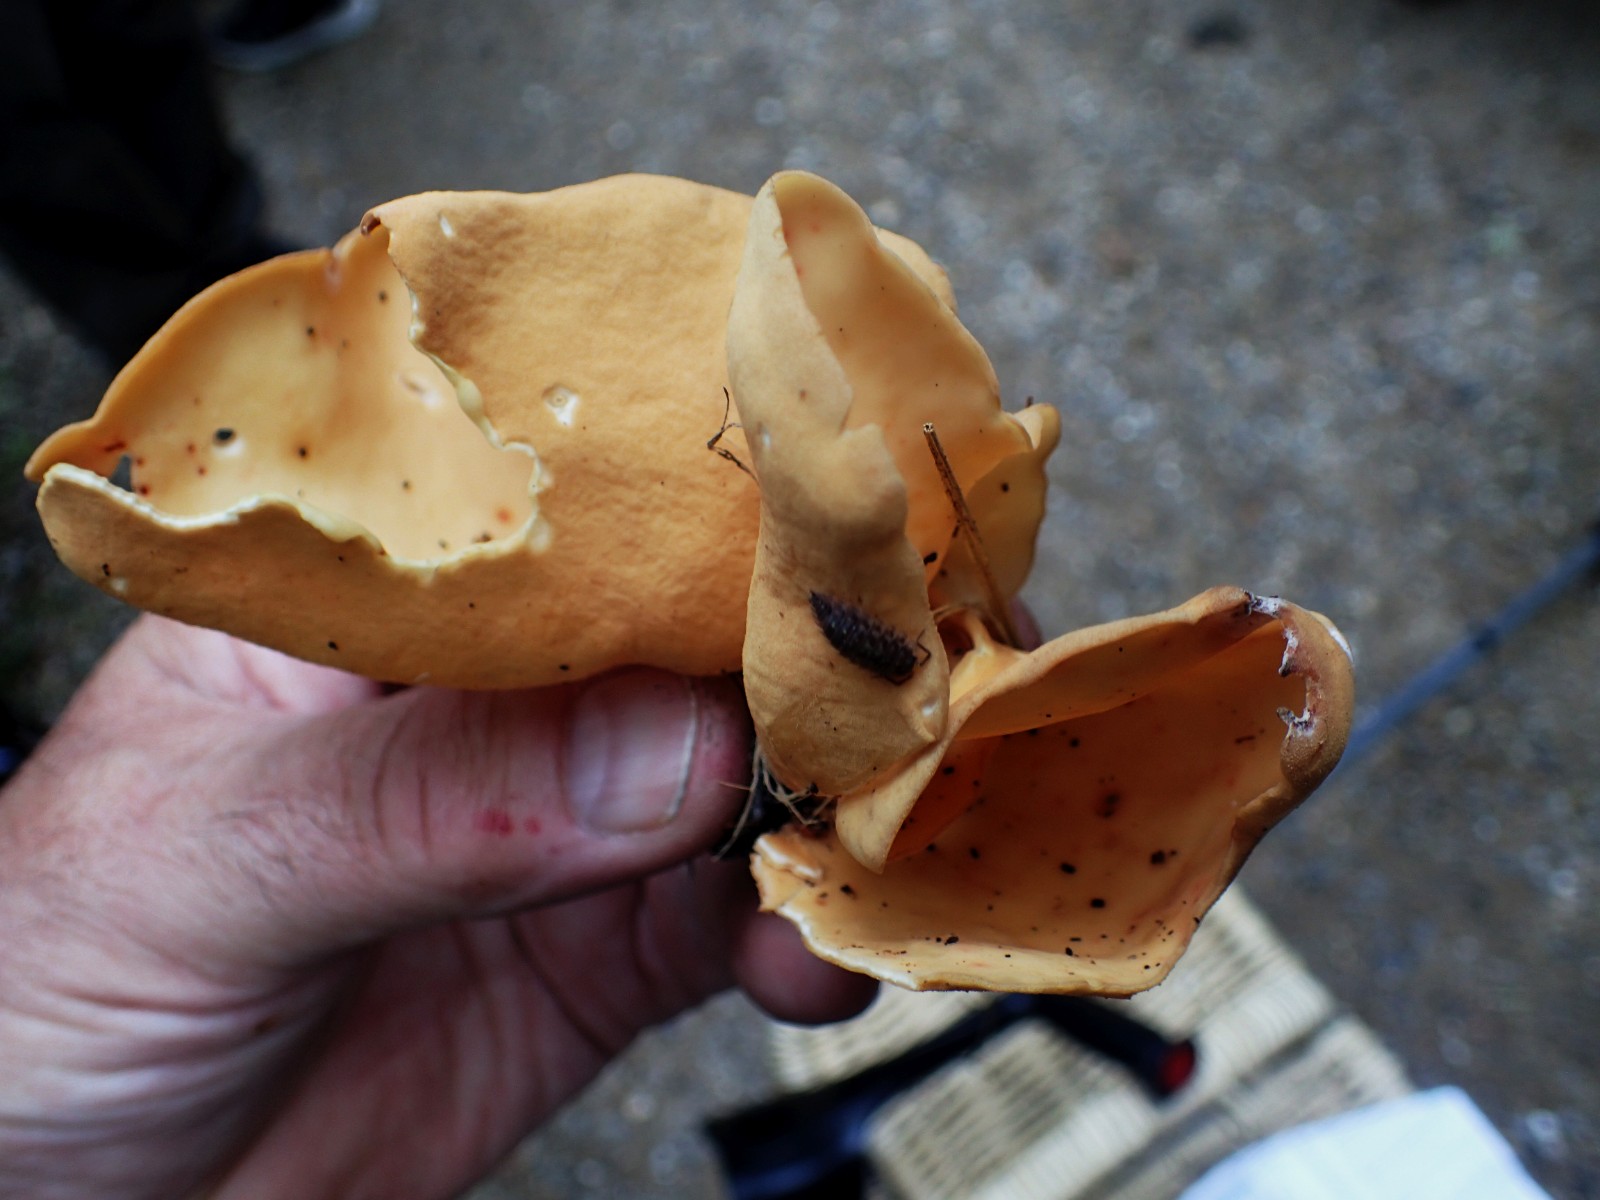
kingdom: Fungi
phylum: Ascomycota
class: Pezizomycetes
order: Pezizales
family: Otideaceae
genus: Otidea
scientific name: Otidea onotica
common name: æsel-ørebæger
